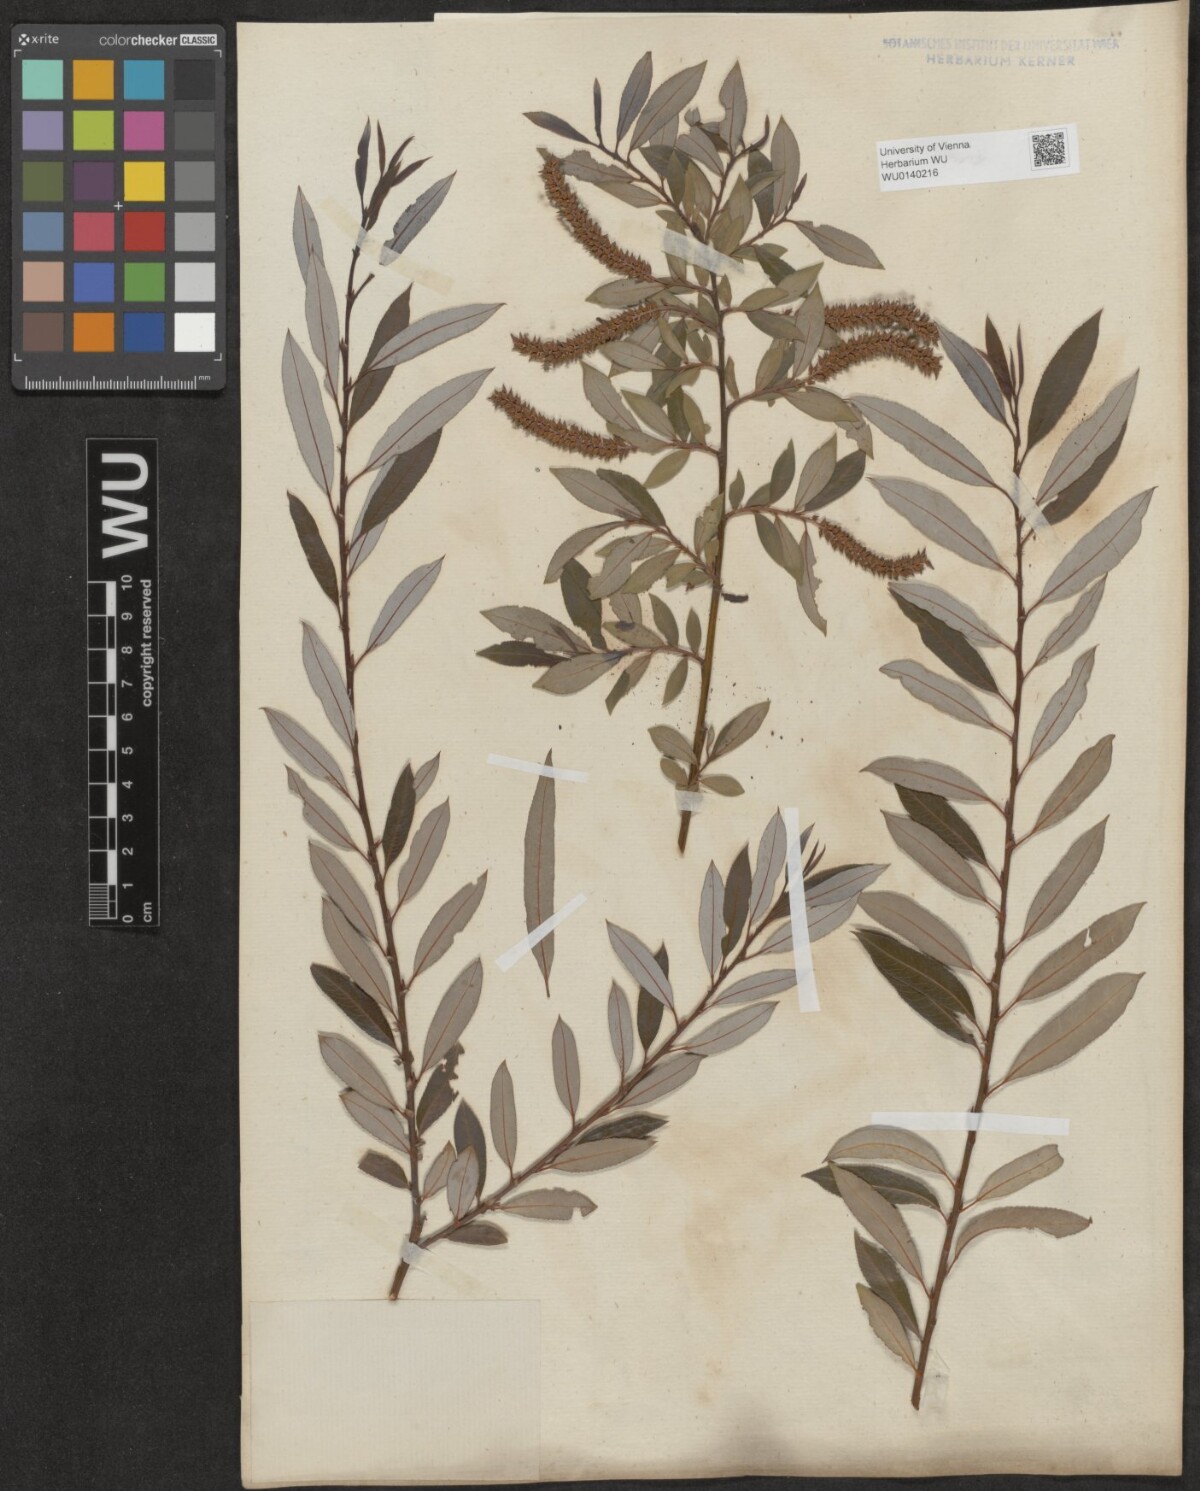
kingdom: Plantae
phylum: Tracheophyta
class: Magnoliopsida
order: Malpighiales
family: Salicaceae
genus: Salix
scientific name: Salix triandra
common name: Almond willow
